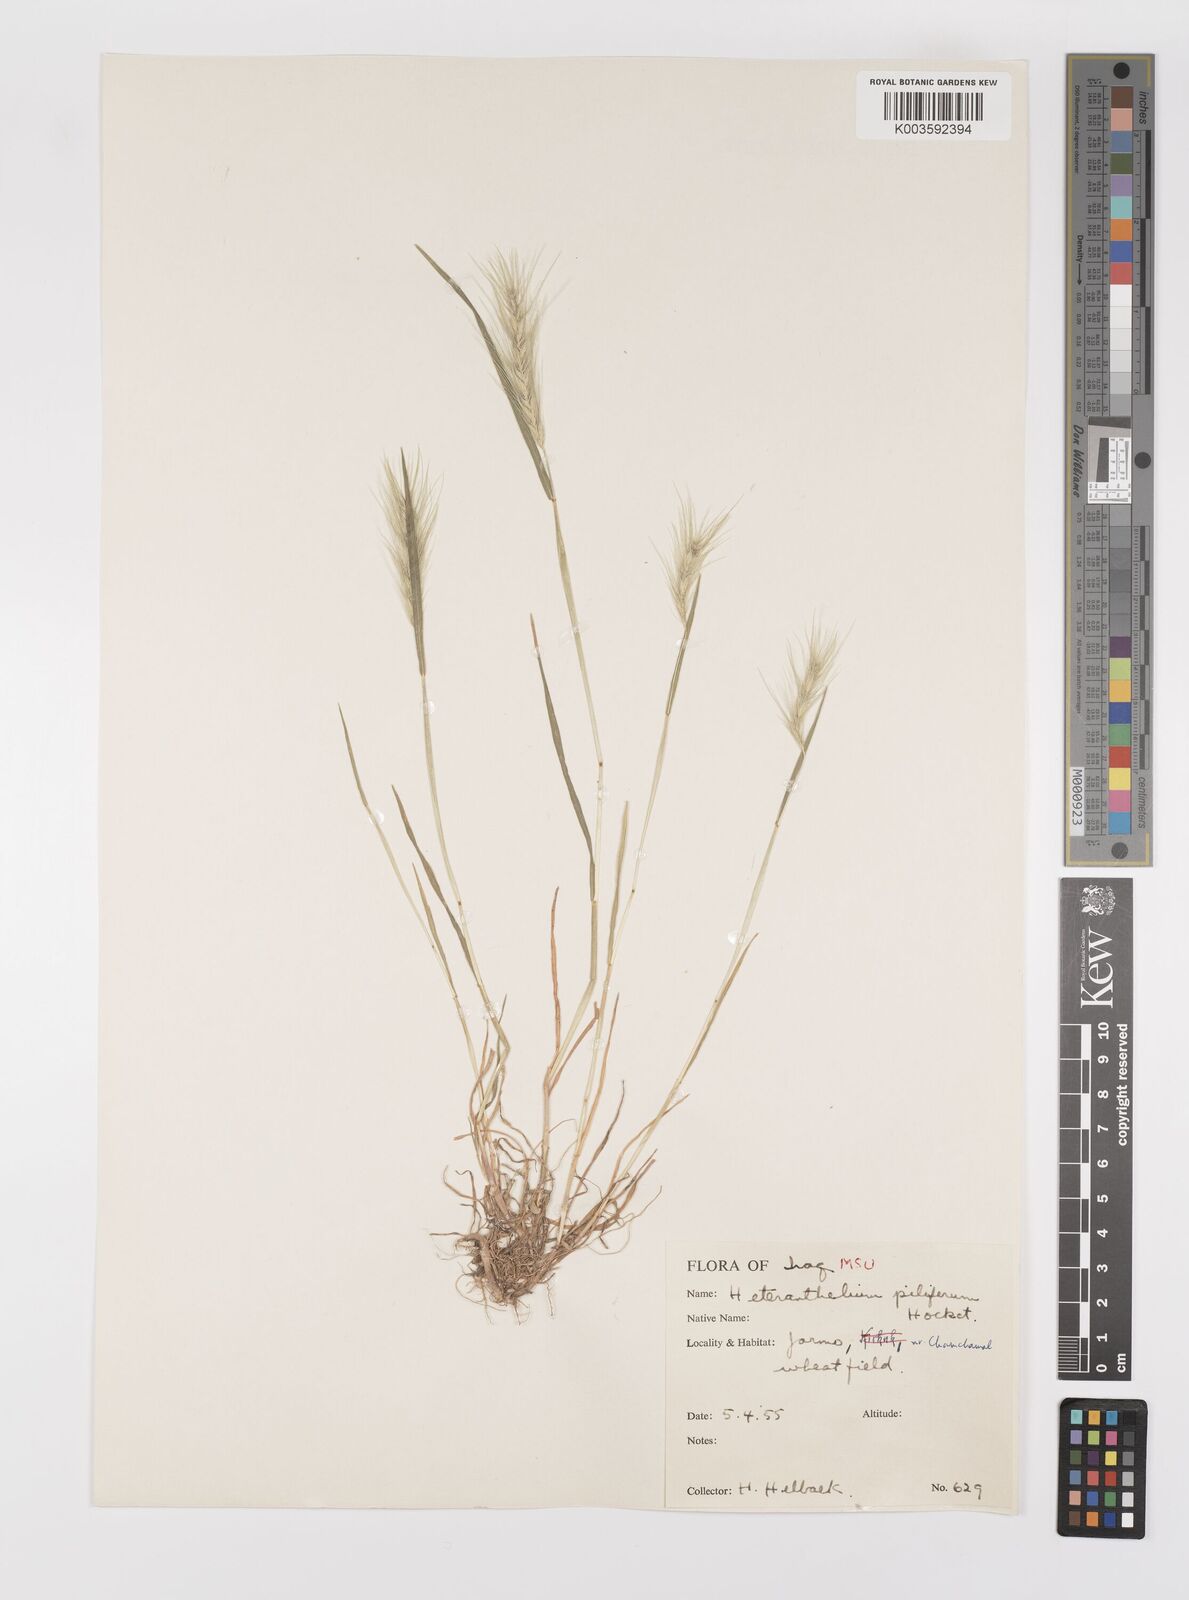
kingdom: Plantae
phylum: Tracheophyta
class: Liliopsida
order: Poales
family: Poaceae
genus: Heteranthelium
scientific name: Heteranthelium piliferum
